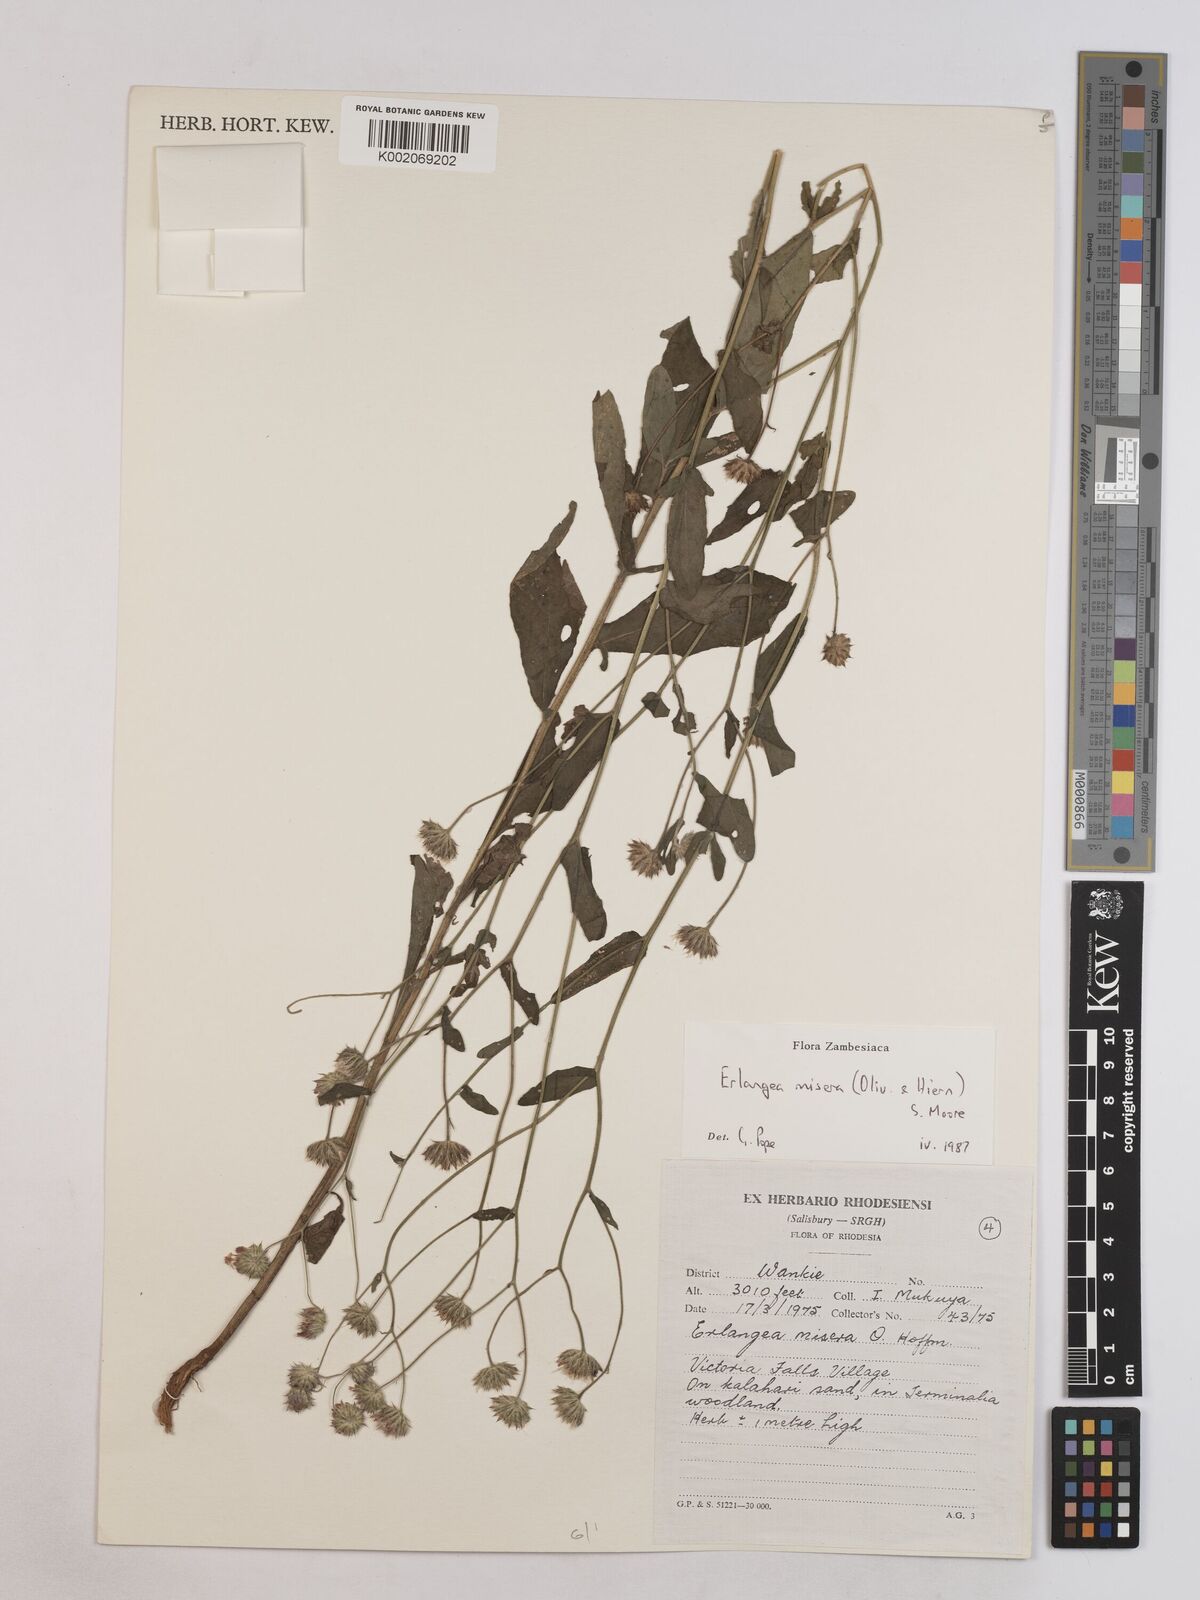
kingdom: Plantae
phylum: Tracheophyta
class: Magnoliopsida
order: Asterales
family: Asteraceae
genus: Erlangea
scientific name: Erlangea misera
